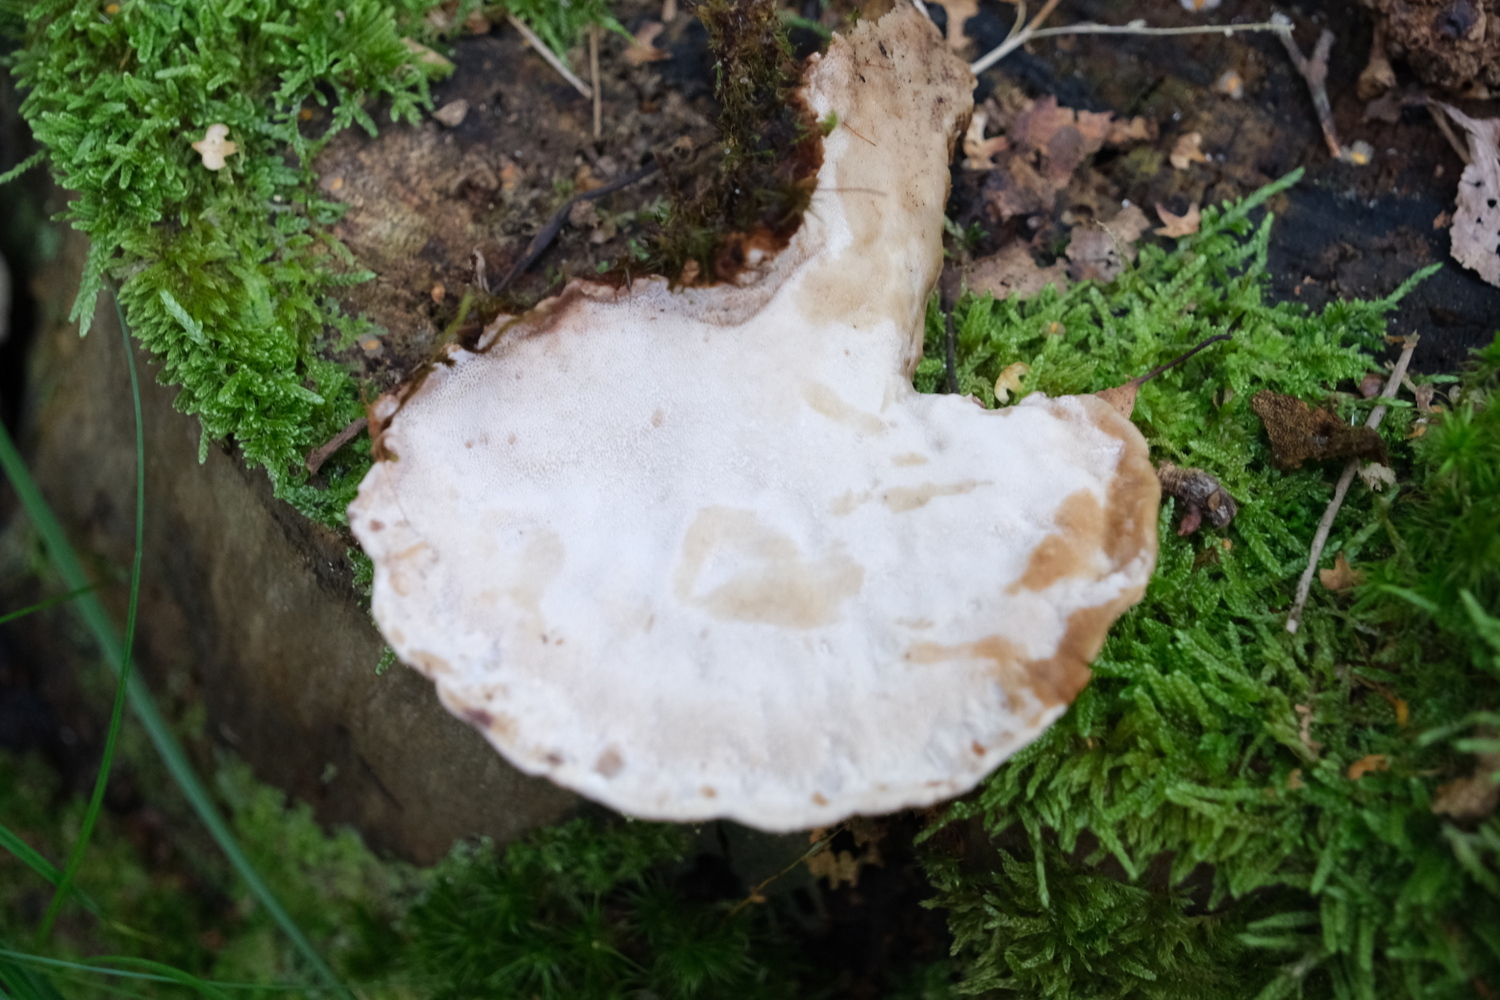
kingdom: Fungi
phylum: Basidiomycota
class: Agaricomycetes
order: Polyporales
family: Ischnodermataceae
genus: Ischnoderma
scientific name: Ischnoderma benzoinum
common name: gran-tjæreporesvamp
